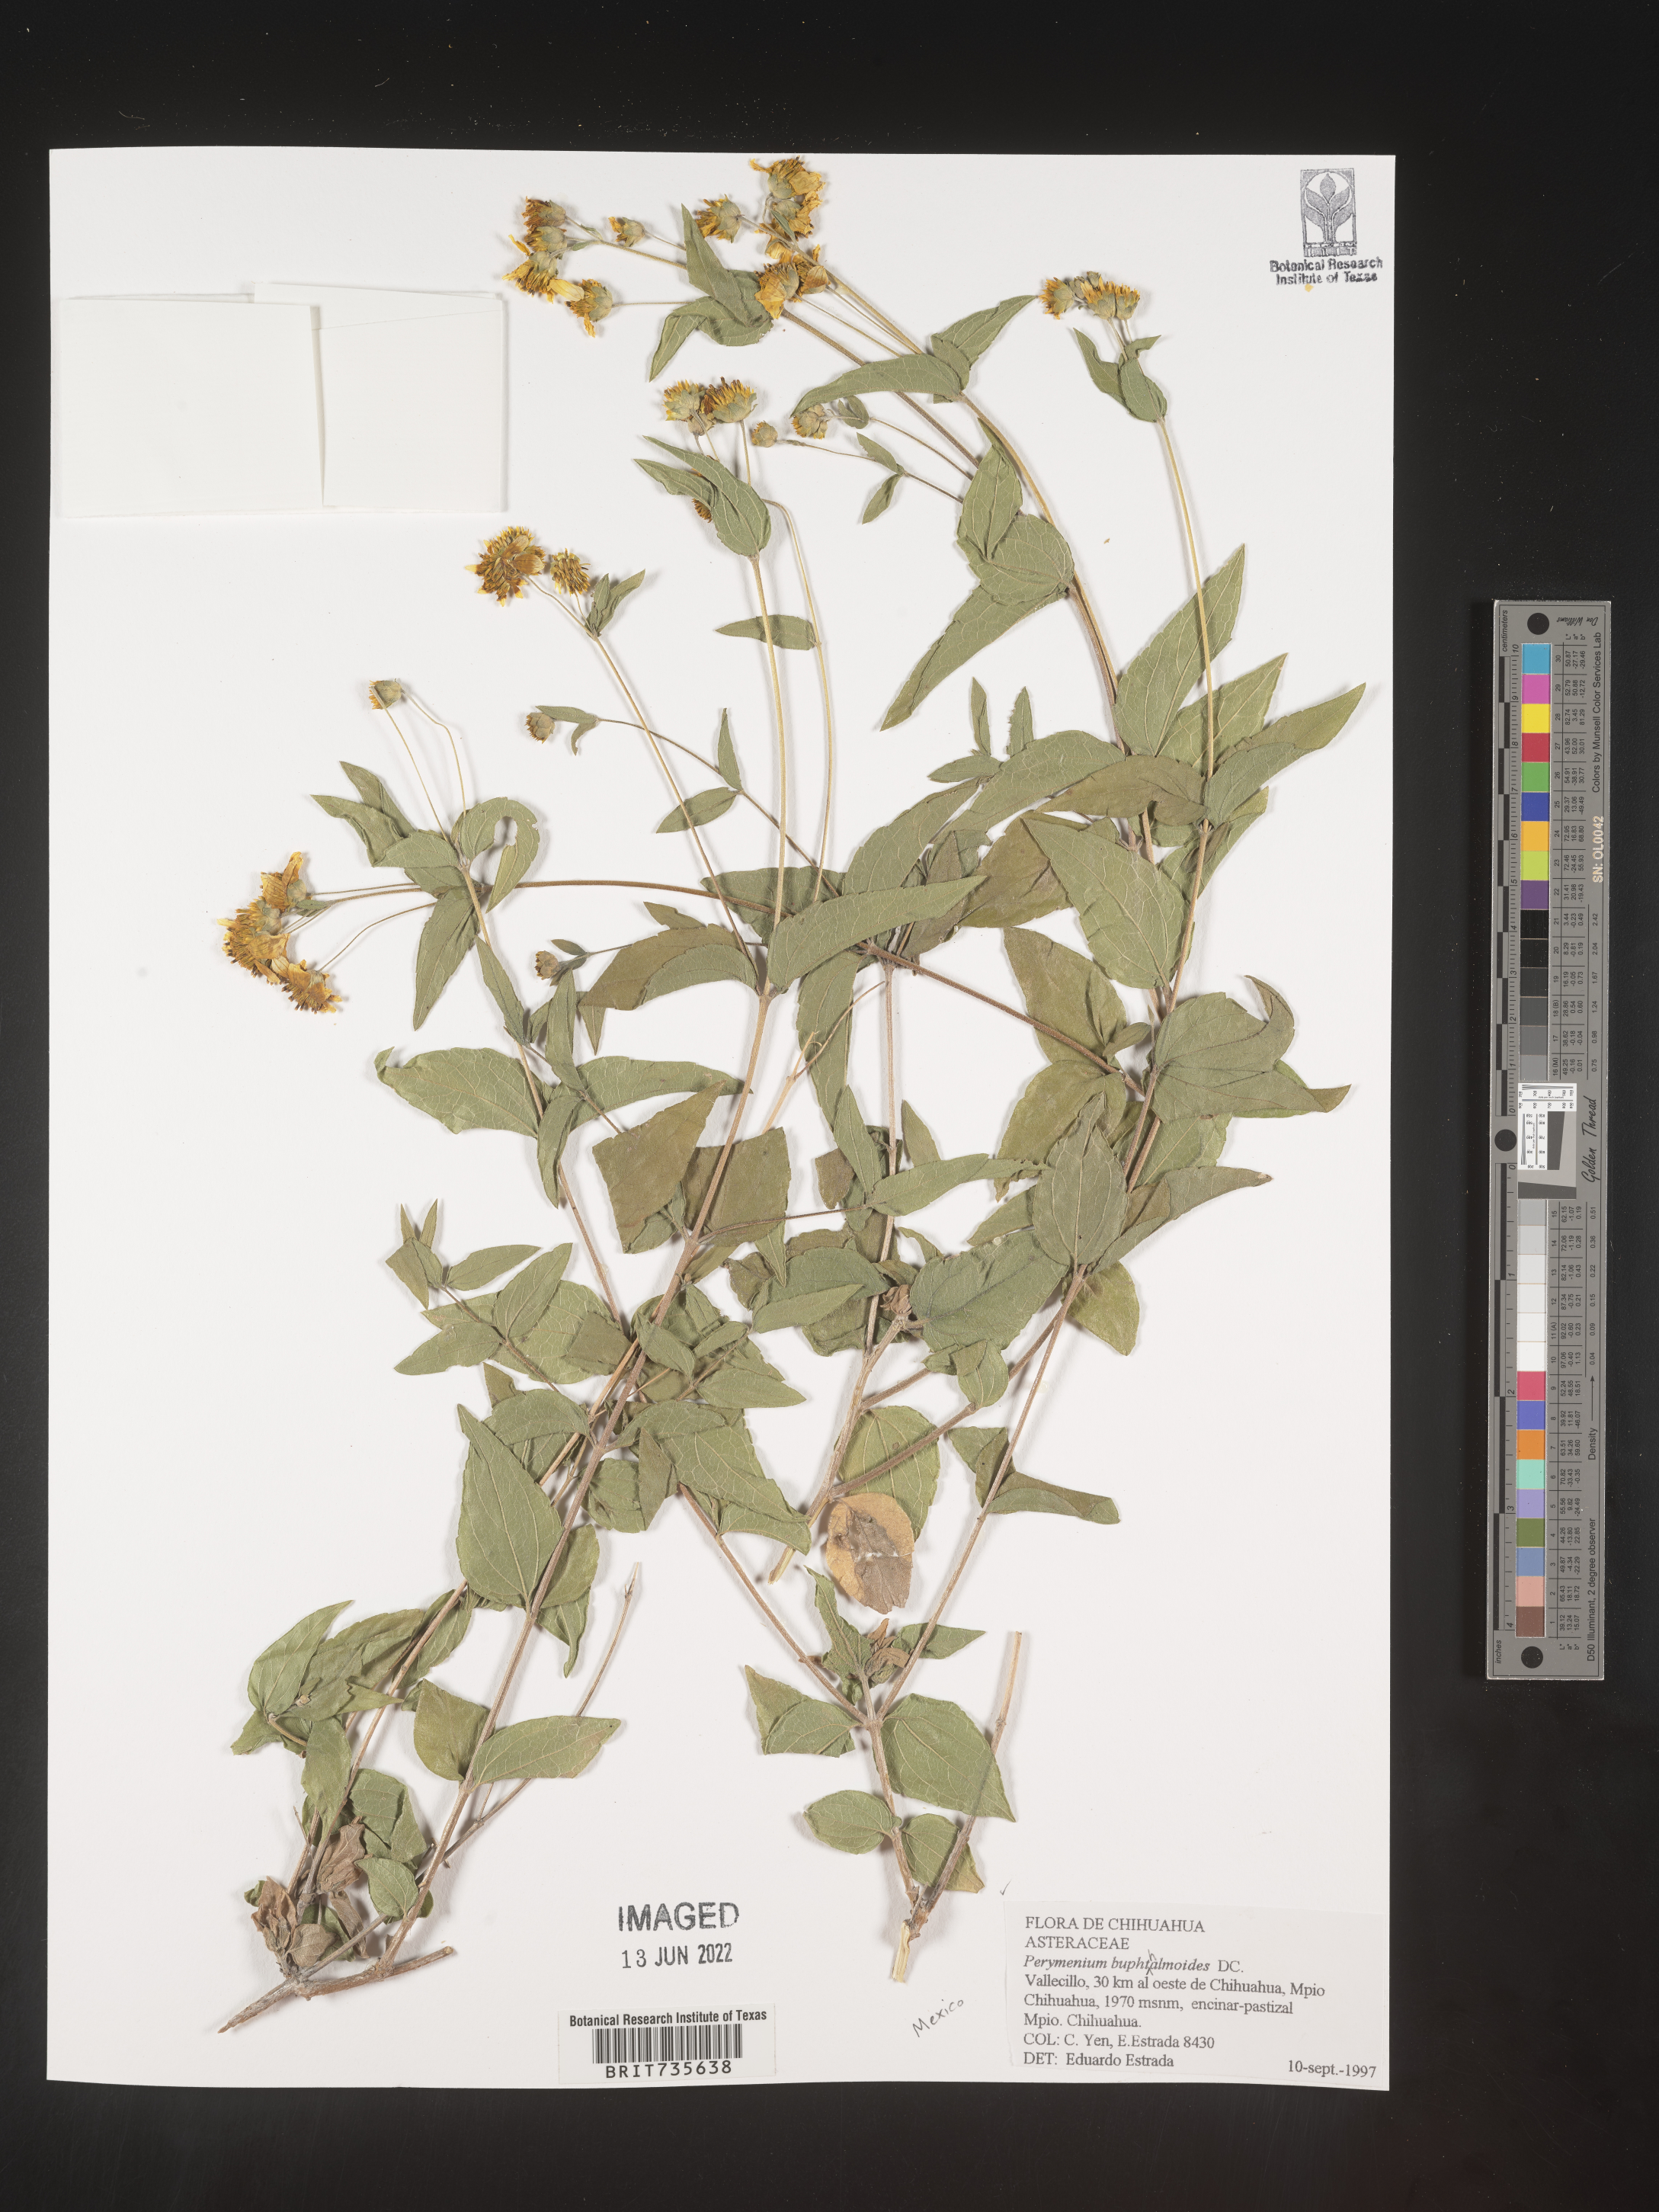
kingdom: Plantae
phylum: Tracheophyta
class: Magnoliopsida
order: Asterales
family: Asteraceae
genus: Perymenium
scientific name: Perymenium
